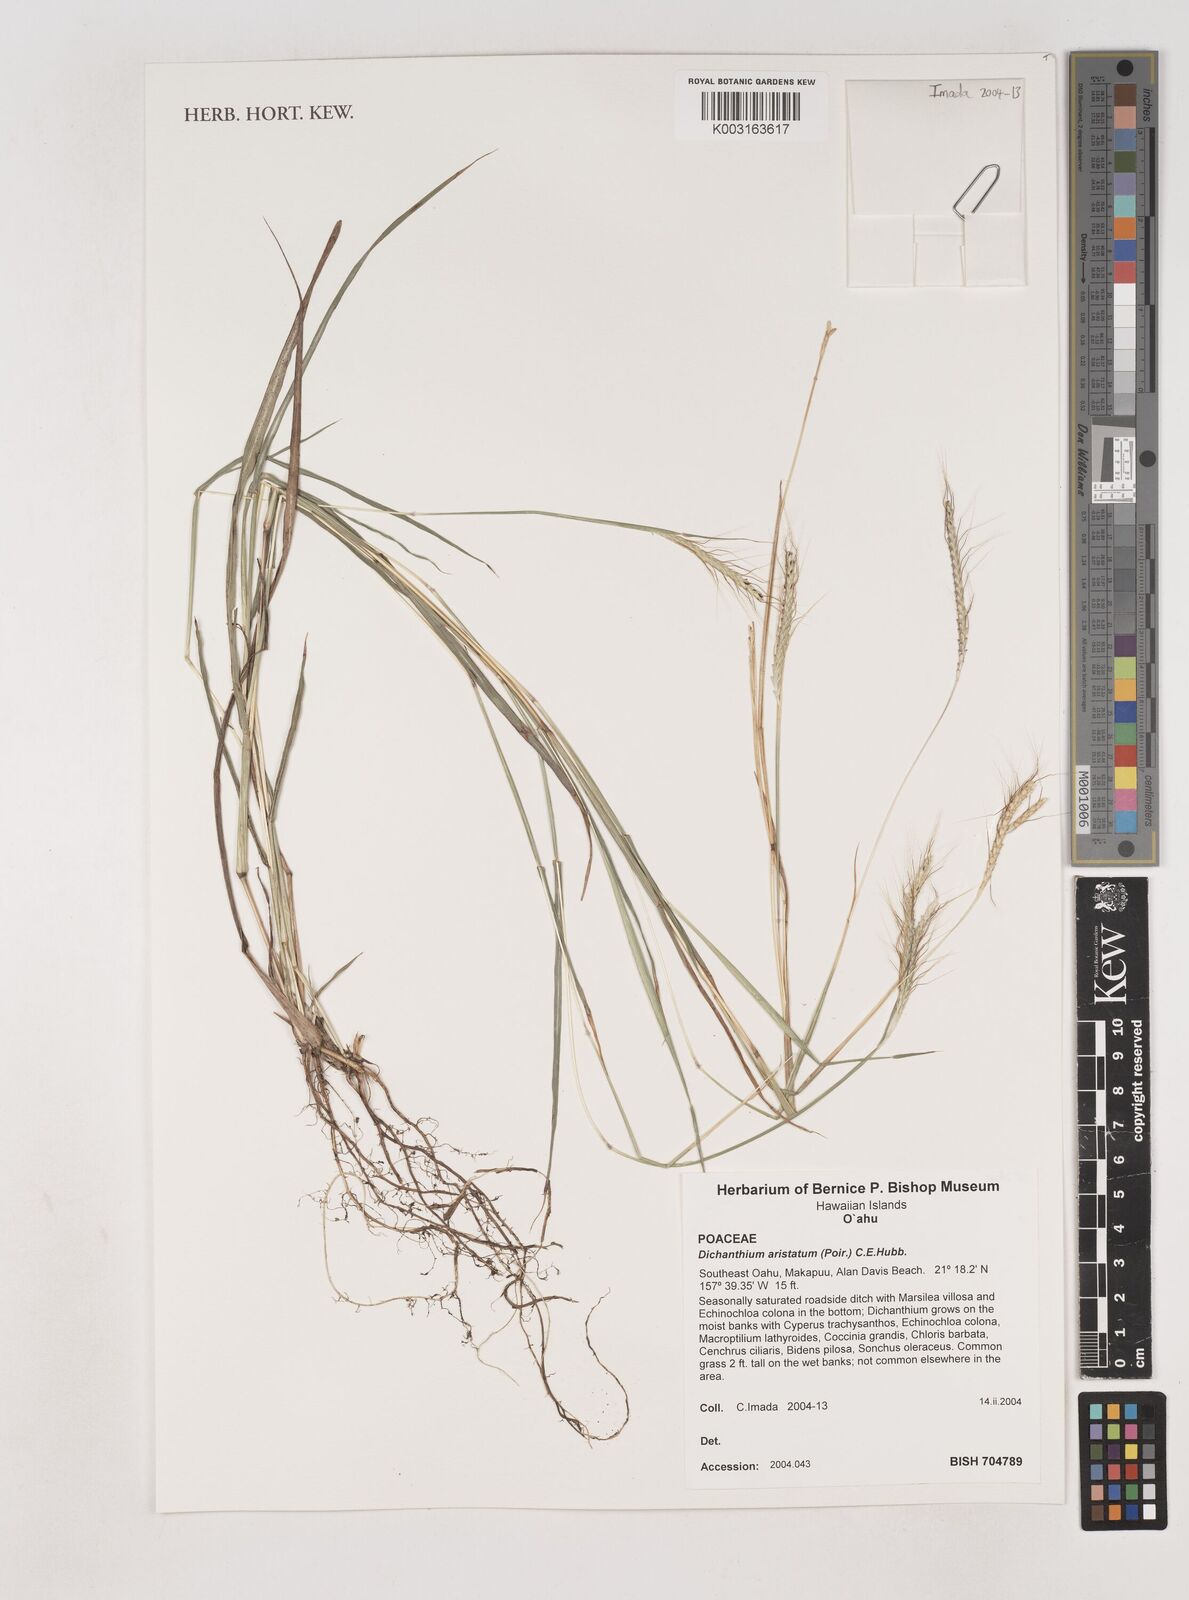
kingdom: Plantae
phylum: Tracheophyta
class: Liliopsida
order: Poales
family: Poaceae
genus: Dichanthium
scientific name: Dichanthium aristatum
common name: Angleton bluestem
